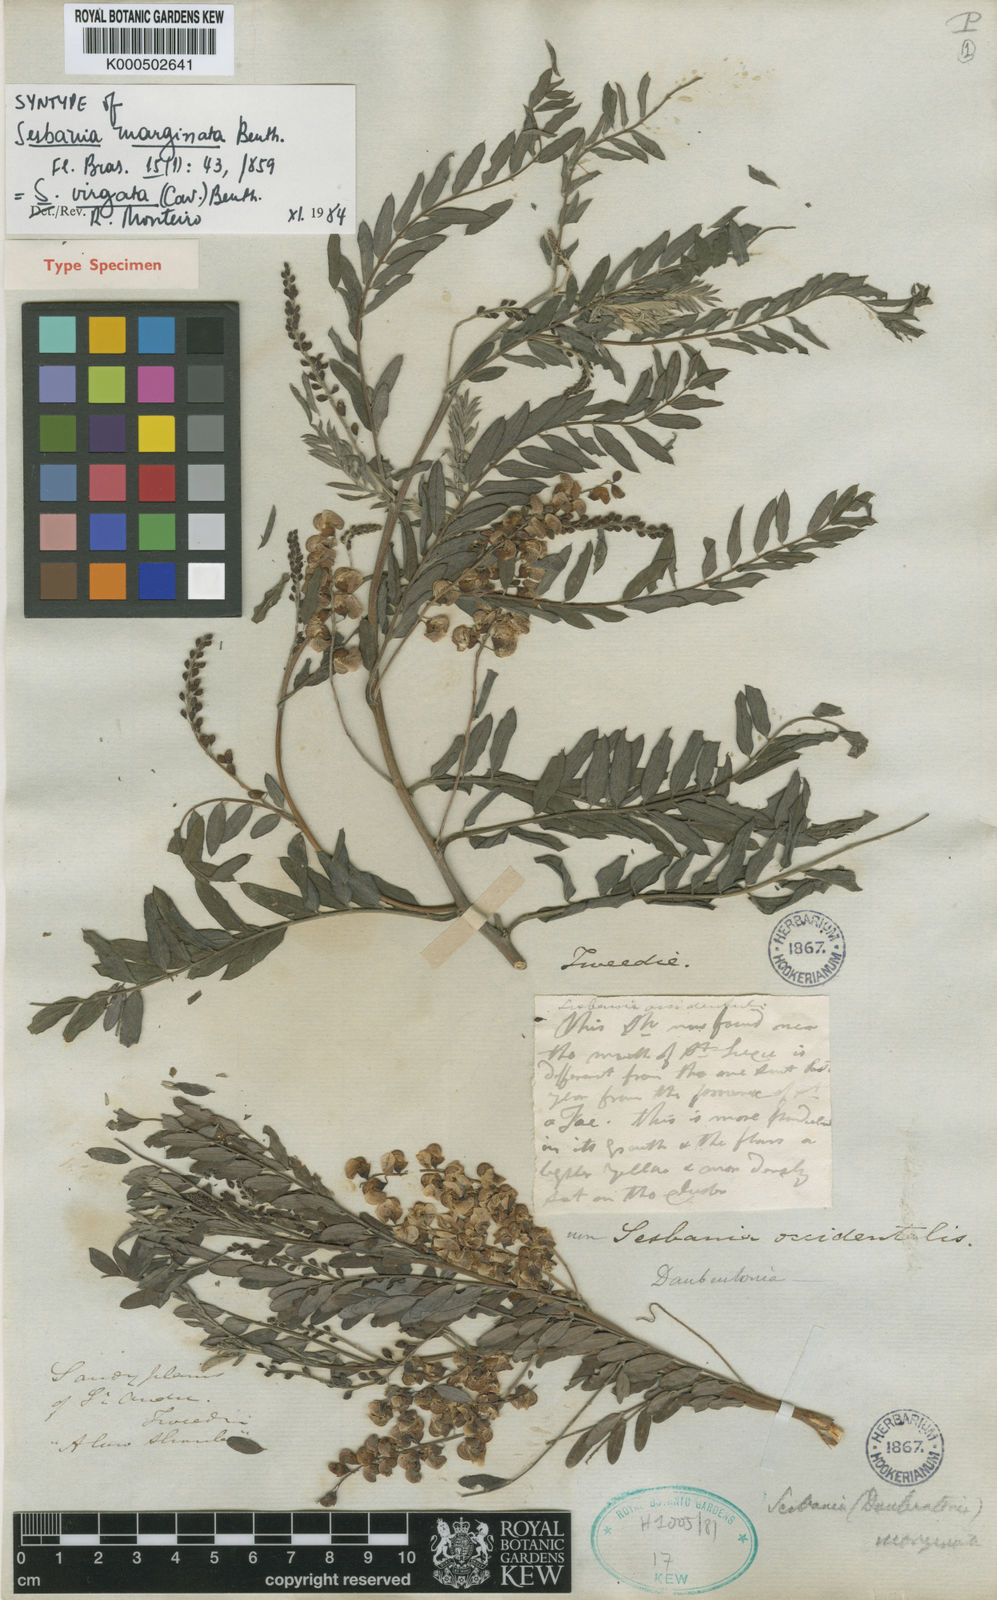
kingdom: Plantae
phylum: Tracheophyta
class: Magnoliopsida
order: Fabales
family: Fabaceae
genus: Sesbania
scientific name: Sesbania
